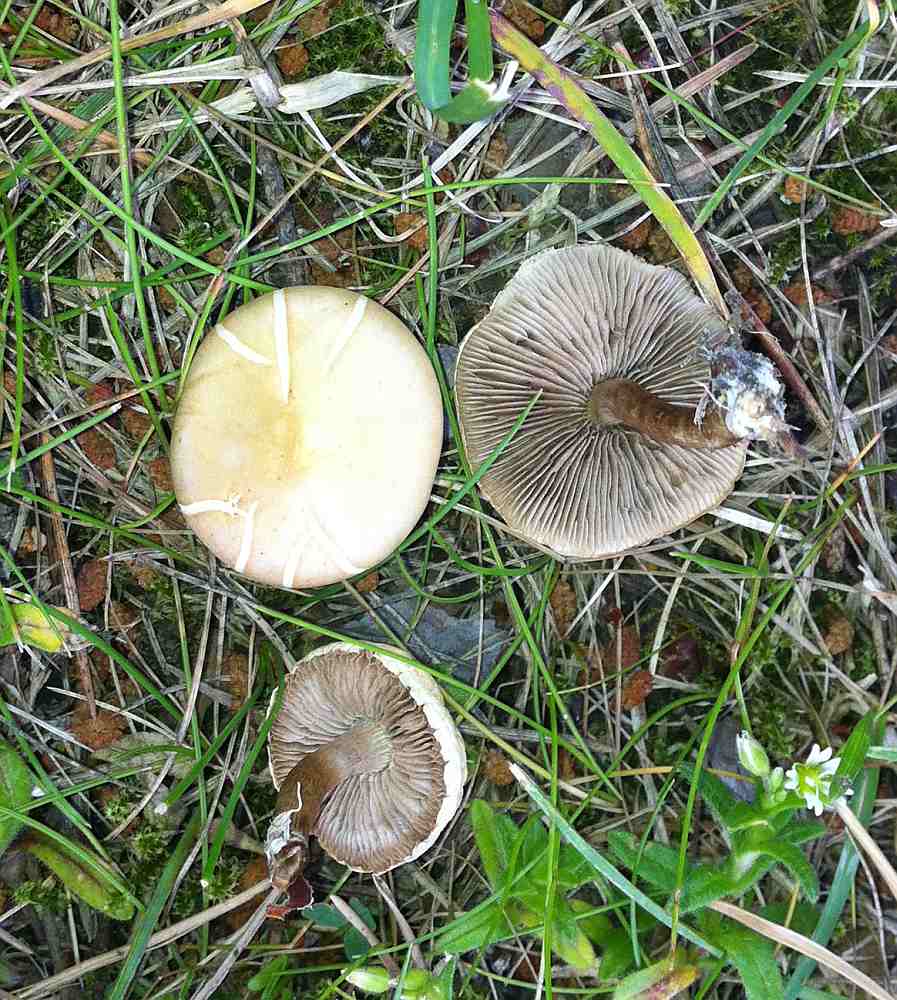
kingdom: Fungi
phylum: Basidiomycota
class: Agaricomycetes
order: Agaricales
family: Strophariaceae
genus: Agrocybe
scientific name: Agrocybe praecox
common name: tidlig agerhat
